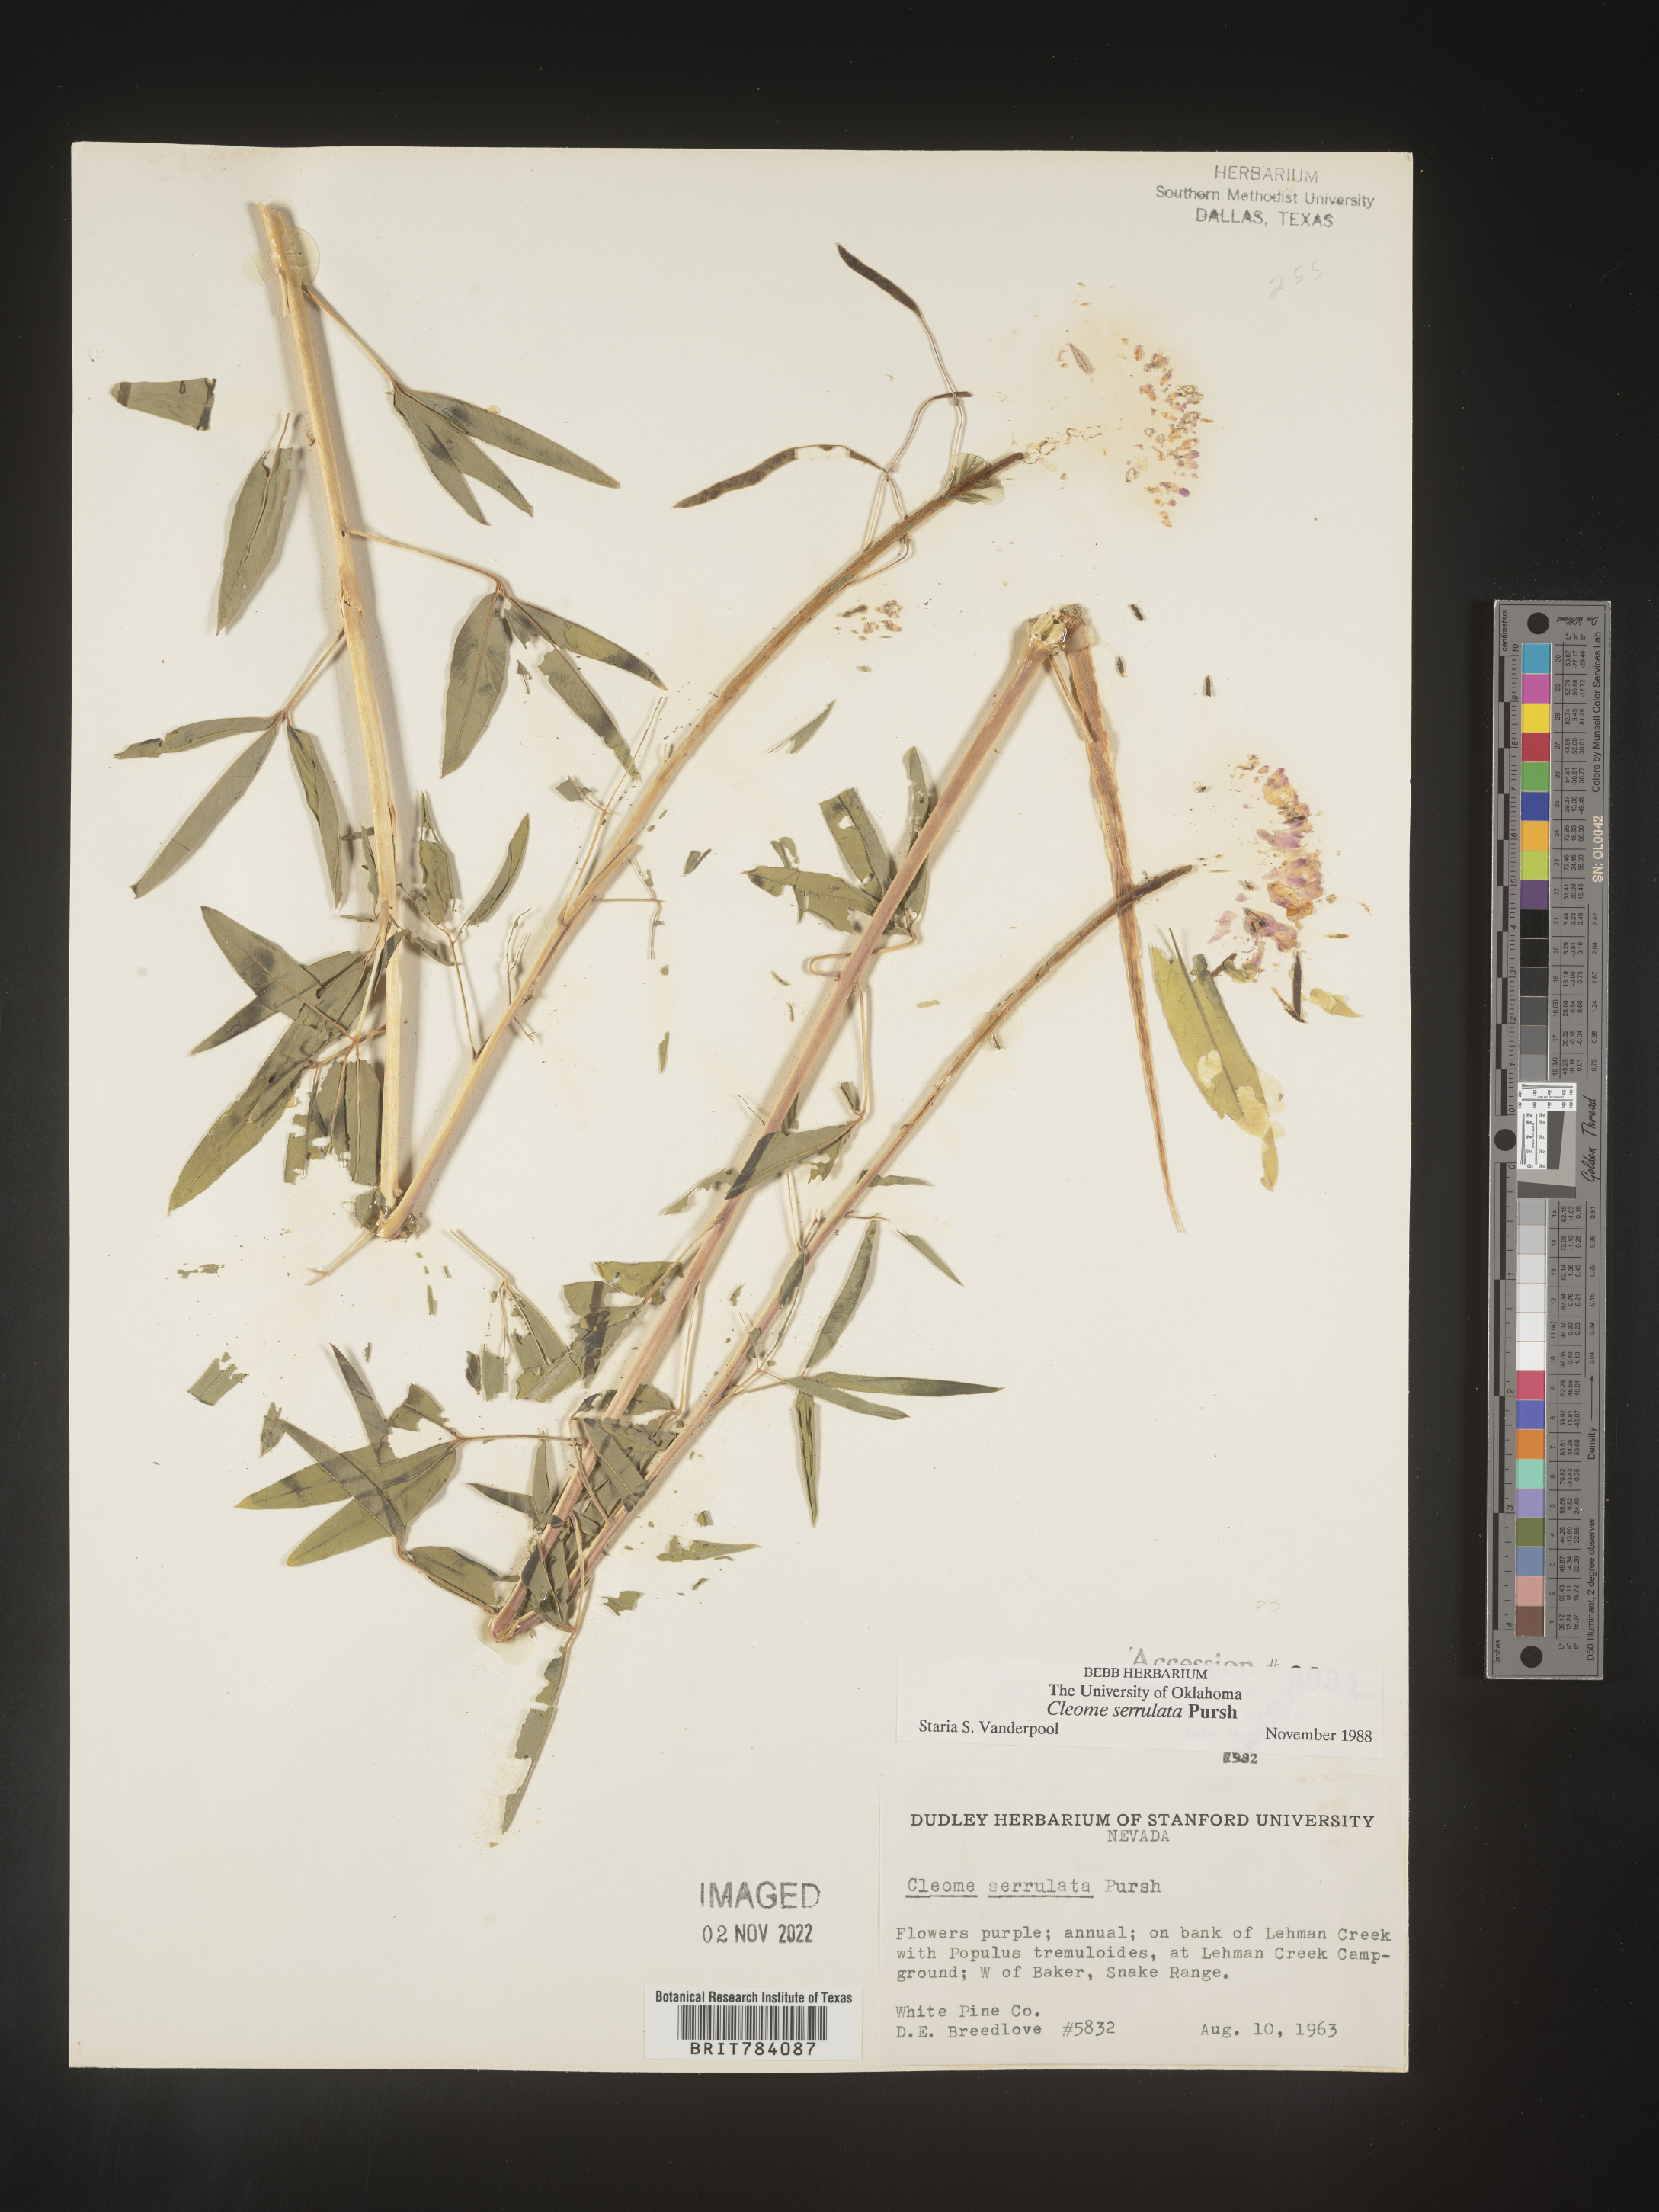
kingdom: Plantae
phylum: Tracheophyta
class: Magnoliopsida
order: Brassicales
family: Cleomaceae
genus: Cleomella
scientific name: Cleomella serrulata
